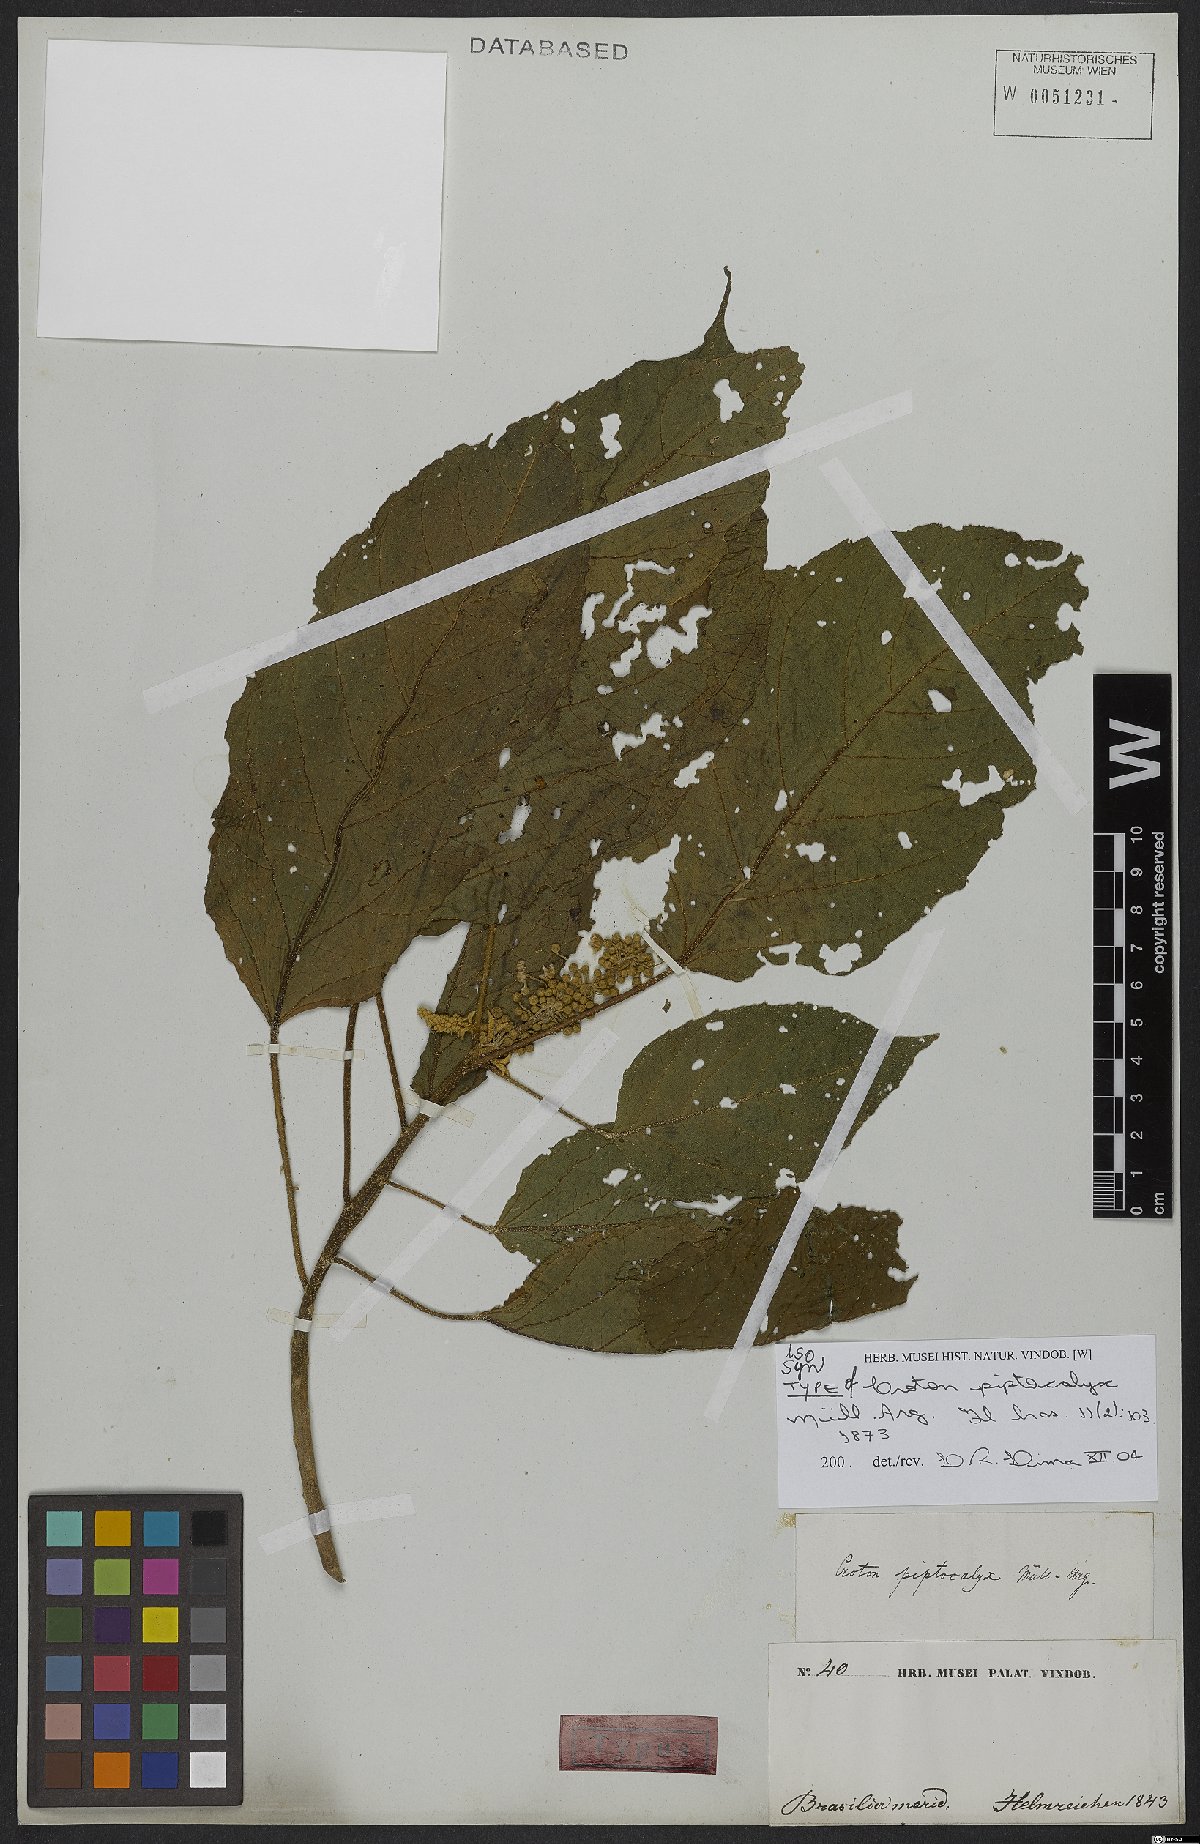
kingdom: Plantae
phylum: Tracheophyta
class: Magnoliopsida
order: Malpighiales
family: Euphorbiaceae
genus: Croton
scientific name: Croton piptocalyx
